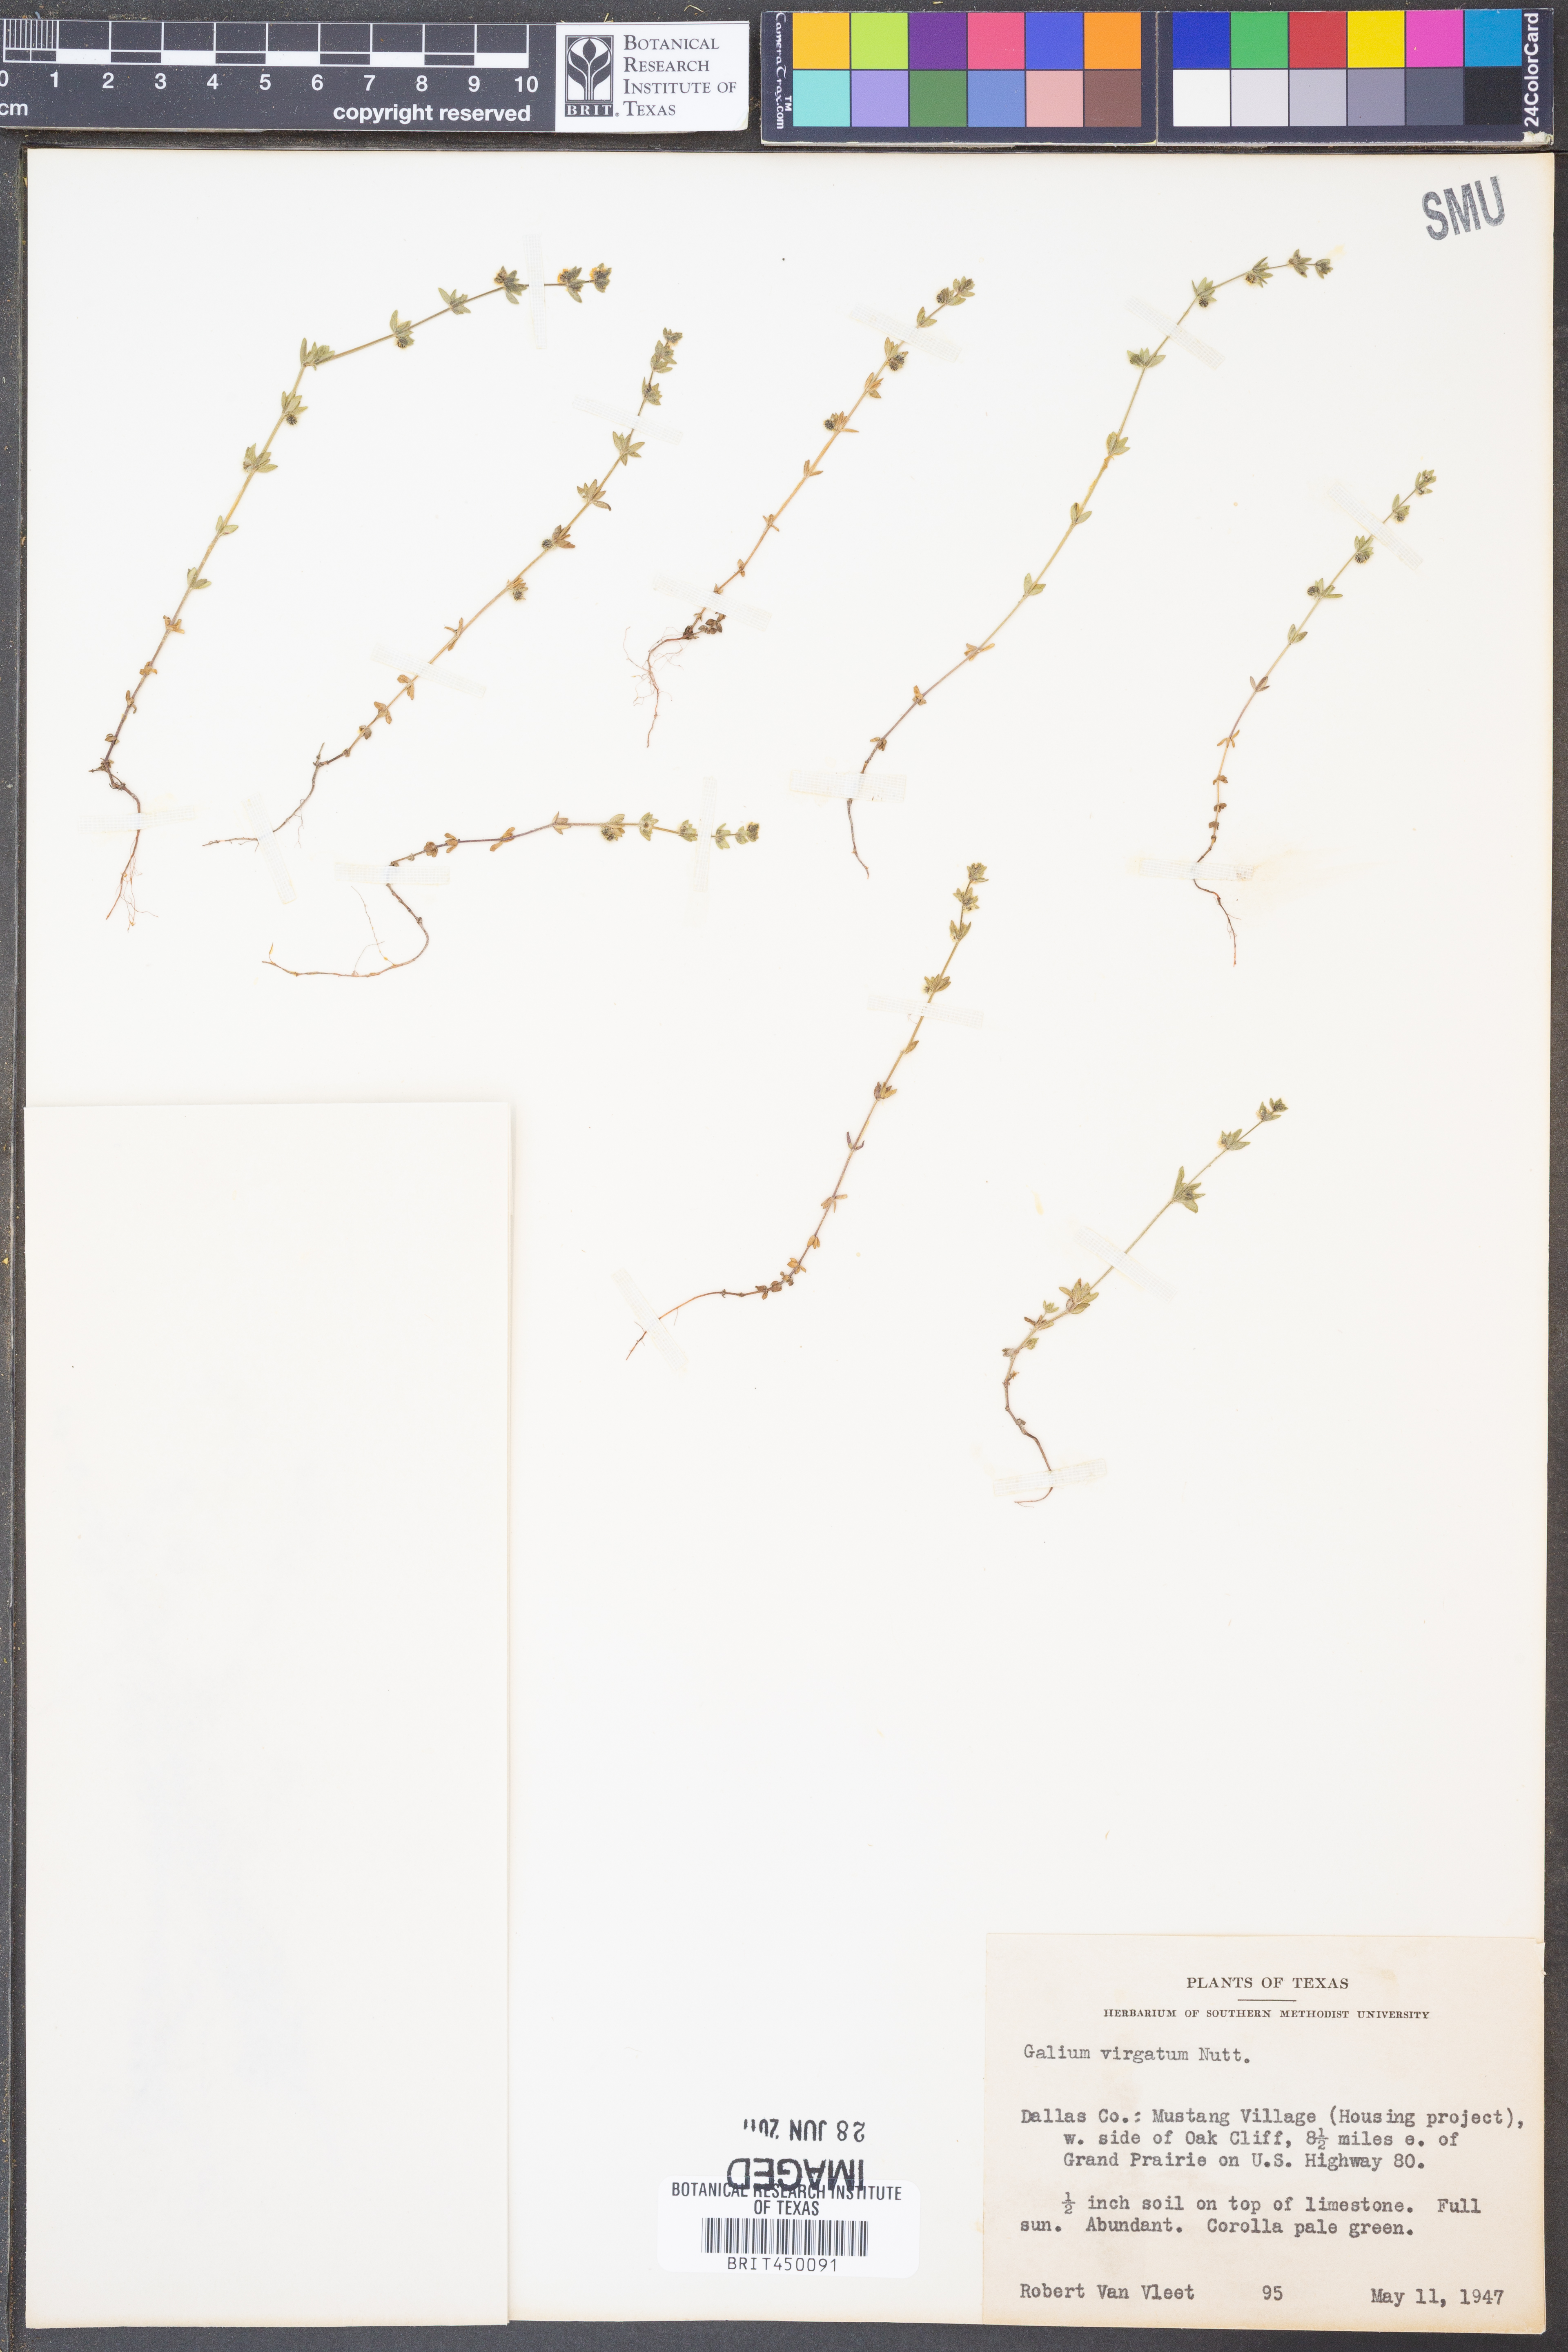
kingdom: Plantae
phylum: Tracheophyta
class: Magnoliopsida
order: Gentianales
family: Rubiaceae
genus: Galium
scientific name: Galium virgatum
